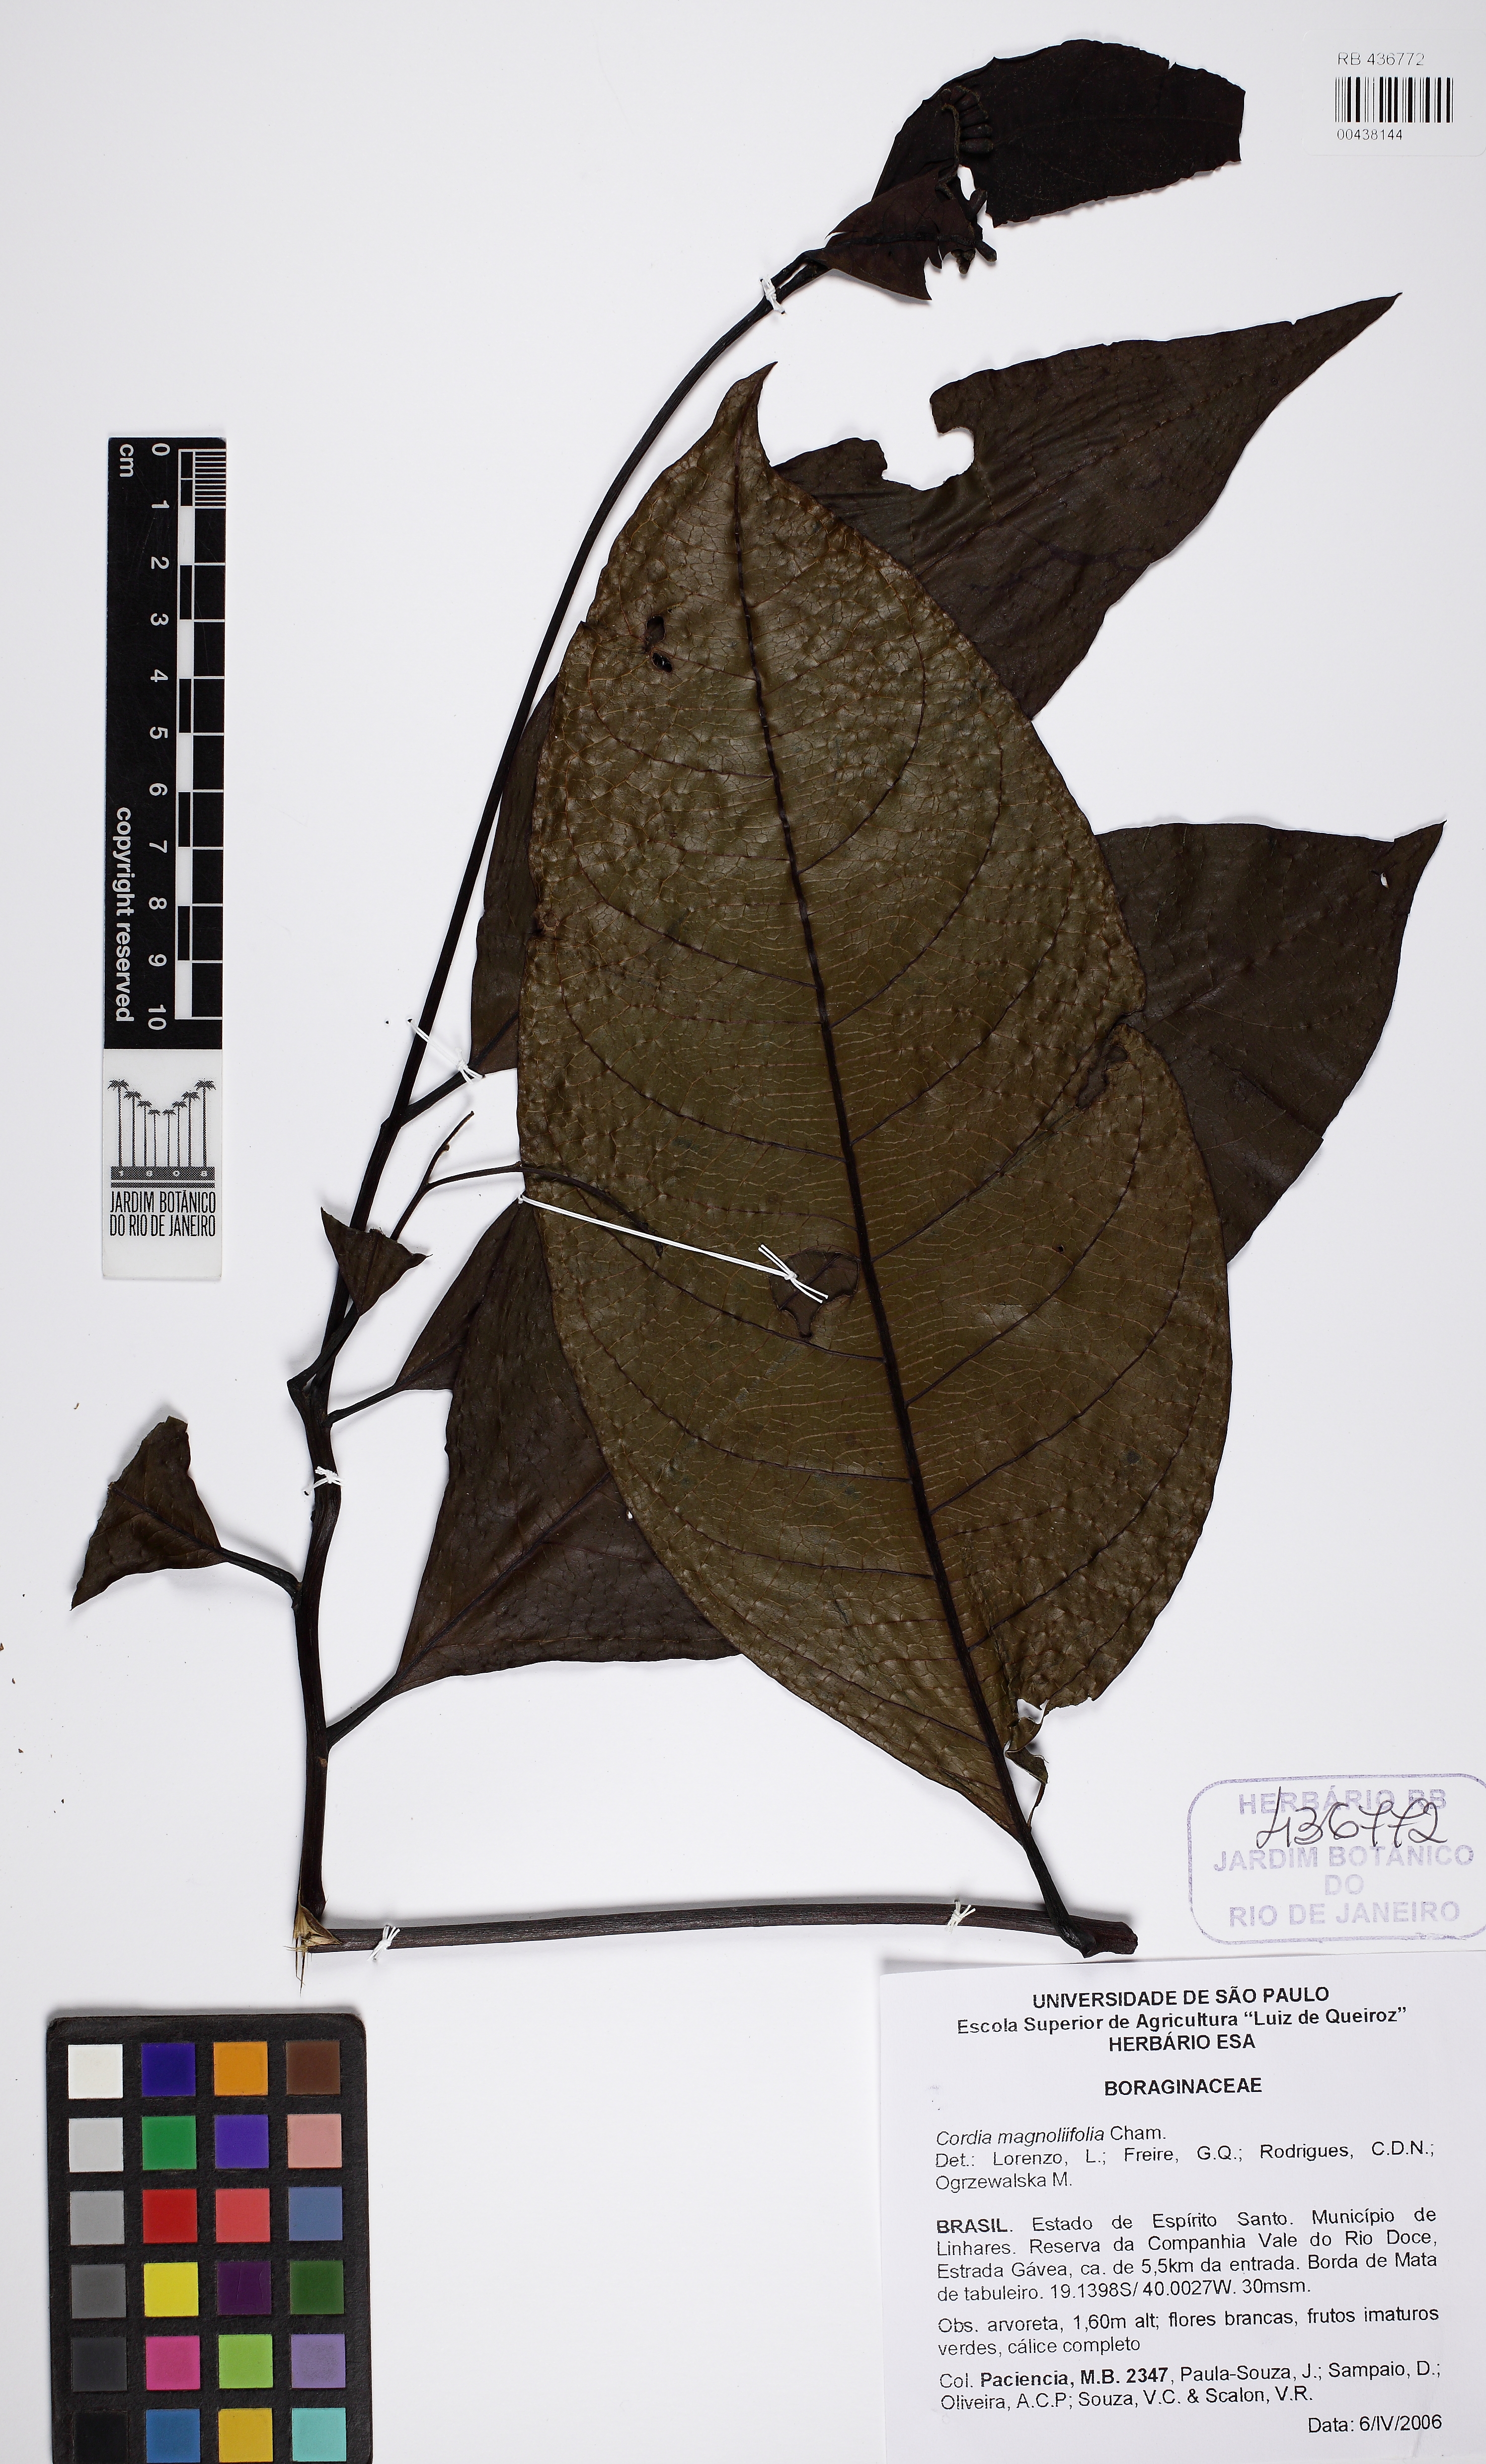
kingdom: Plantae
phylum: Tracheophyta
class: Magnoliopsida
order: Boraginales
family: Cordiaceae
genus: Cordia
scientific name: Cordia magnoliifolia
